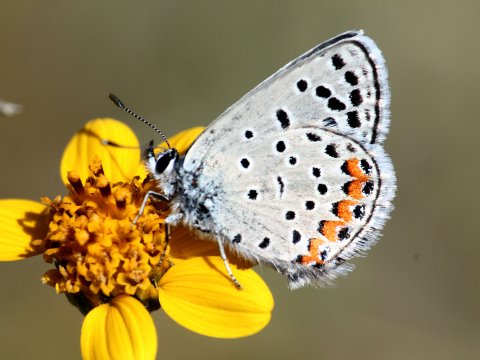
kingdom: Animalia
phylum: Arthropoda
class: Insecta
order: Lepidoptera
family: Lycaenidae
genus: Plebejus
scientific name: Plebejus lupini
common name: Lupine Blue
